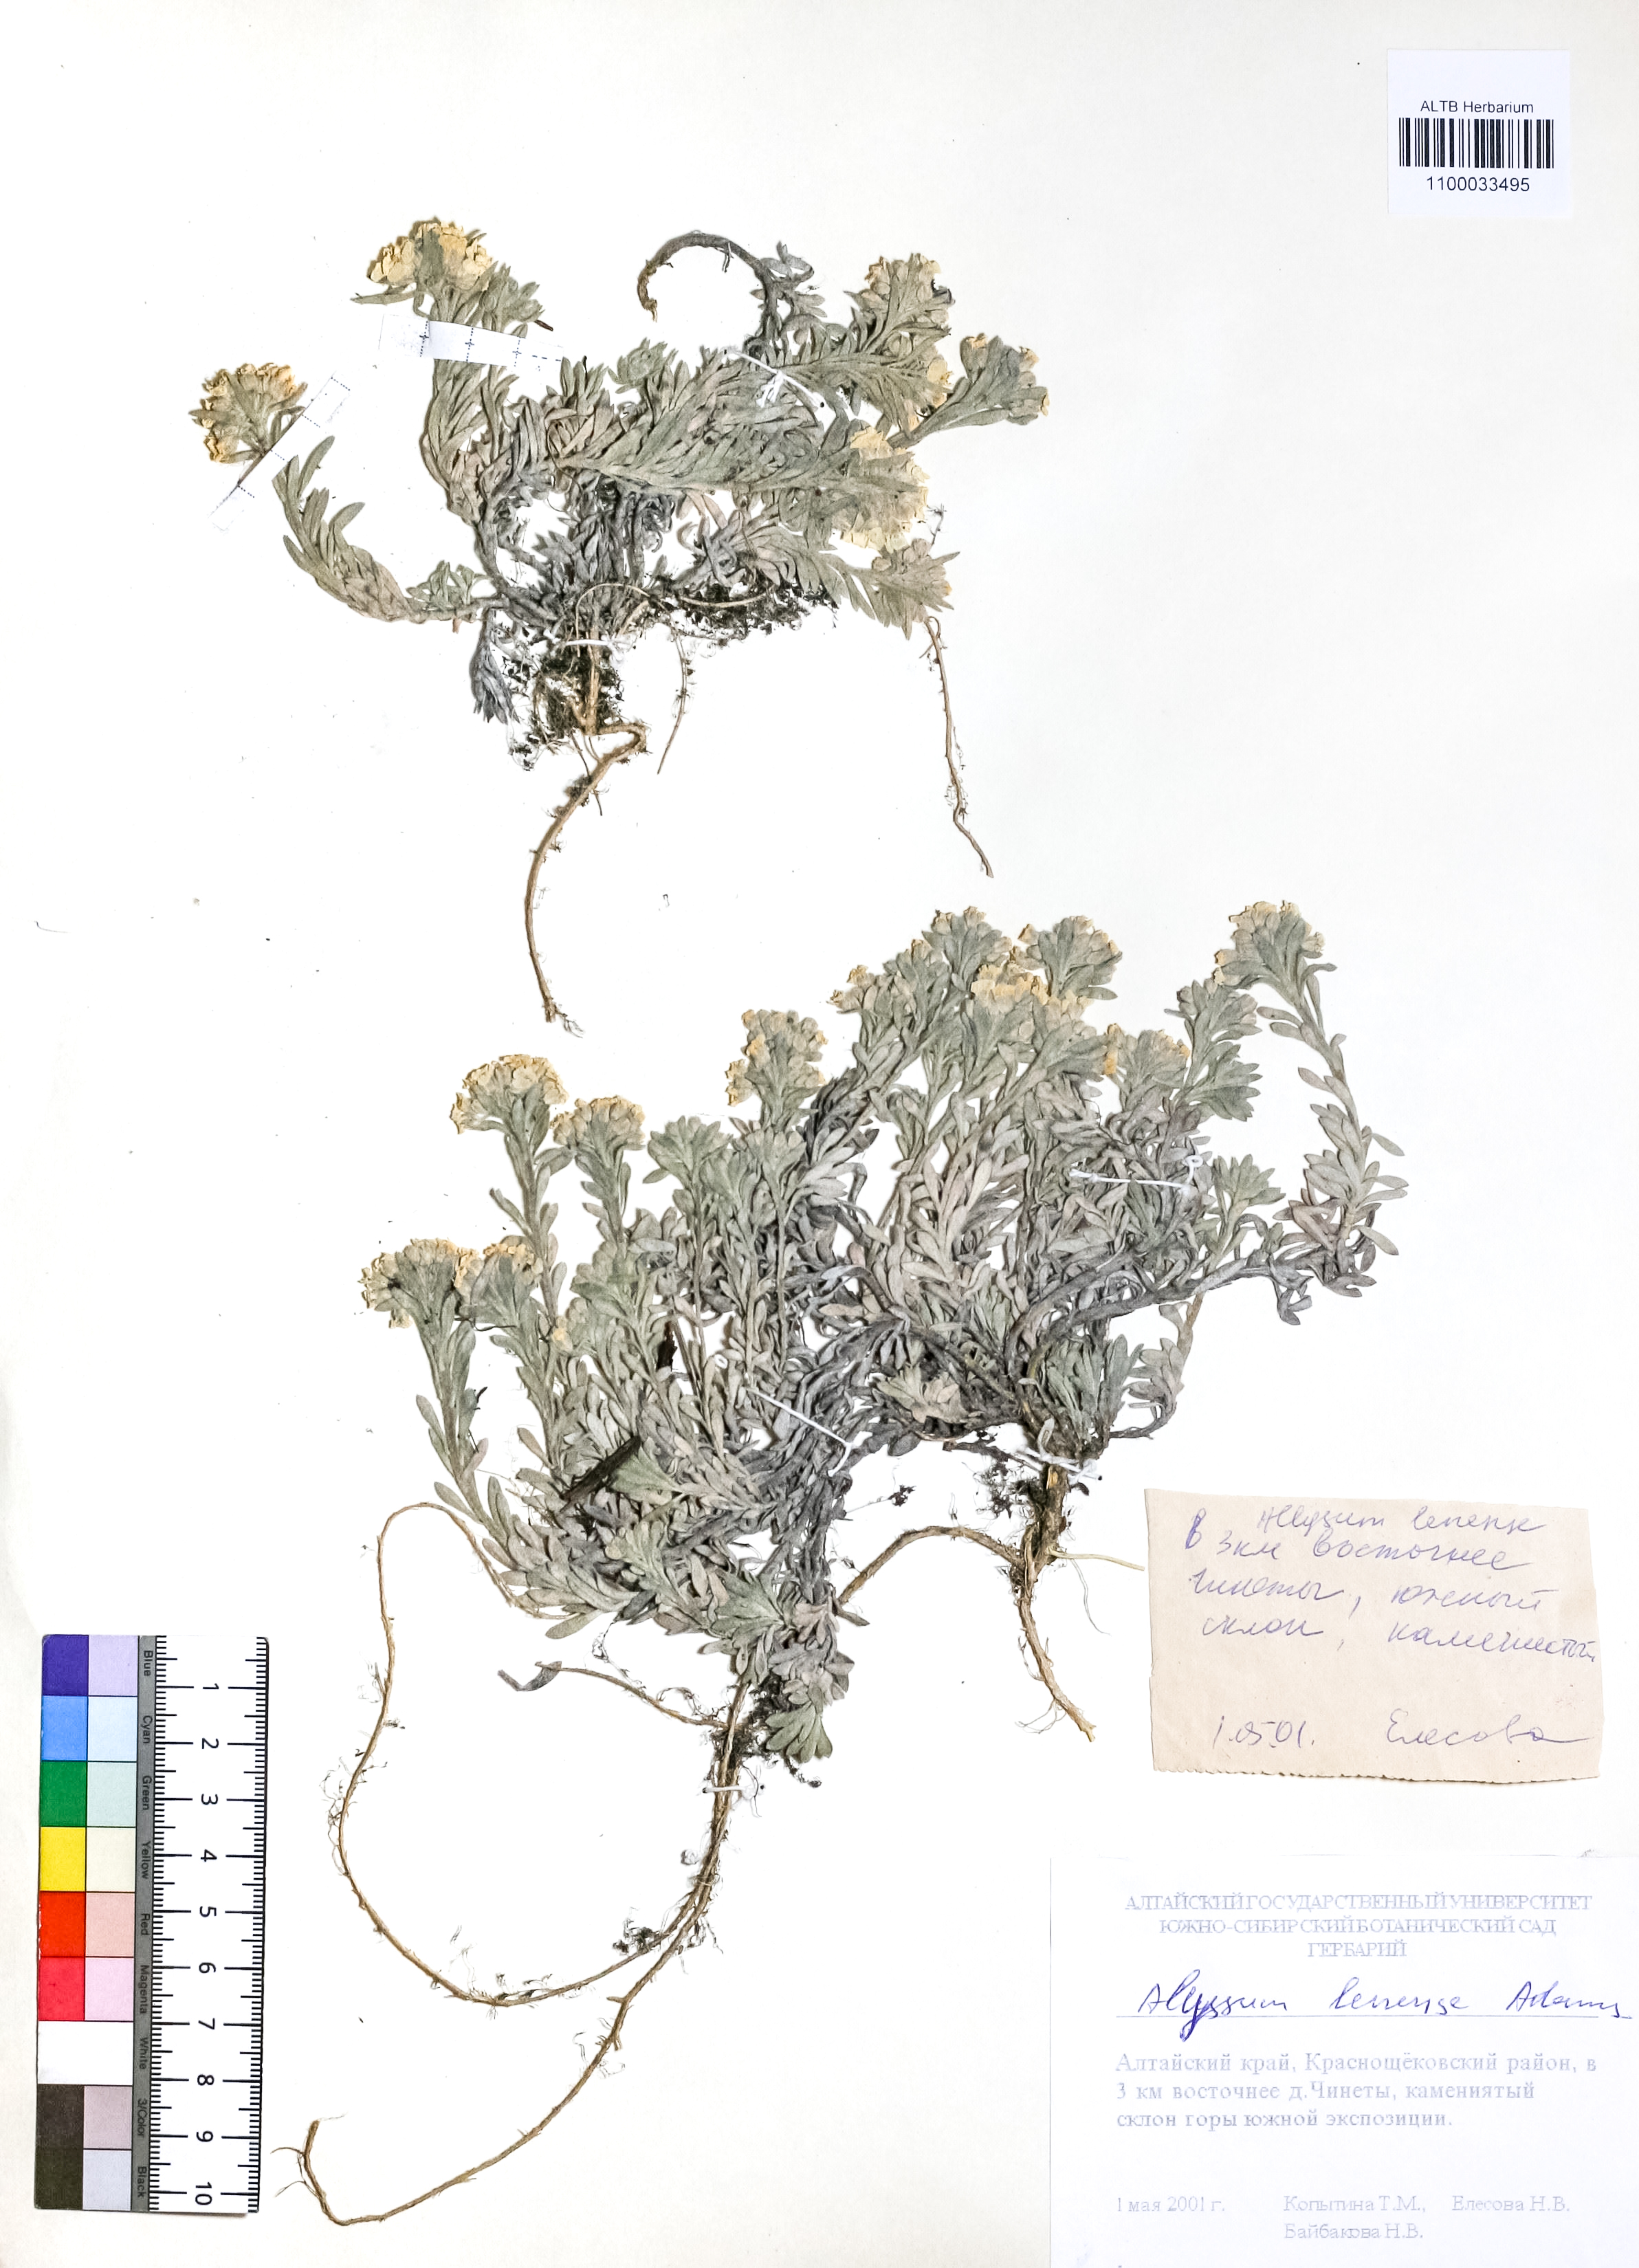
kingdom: Plantae
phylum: Tracheophyta
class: Magnoliopsida
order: Brassicales
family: Brassicaceae
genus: Alyssum
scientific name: Alyssum lenense
